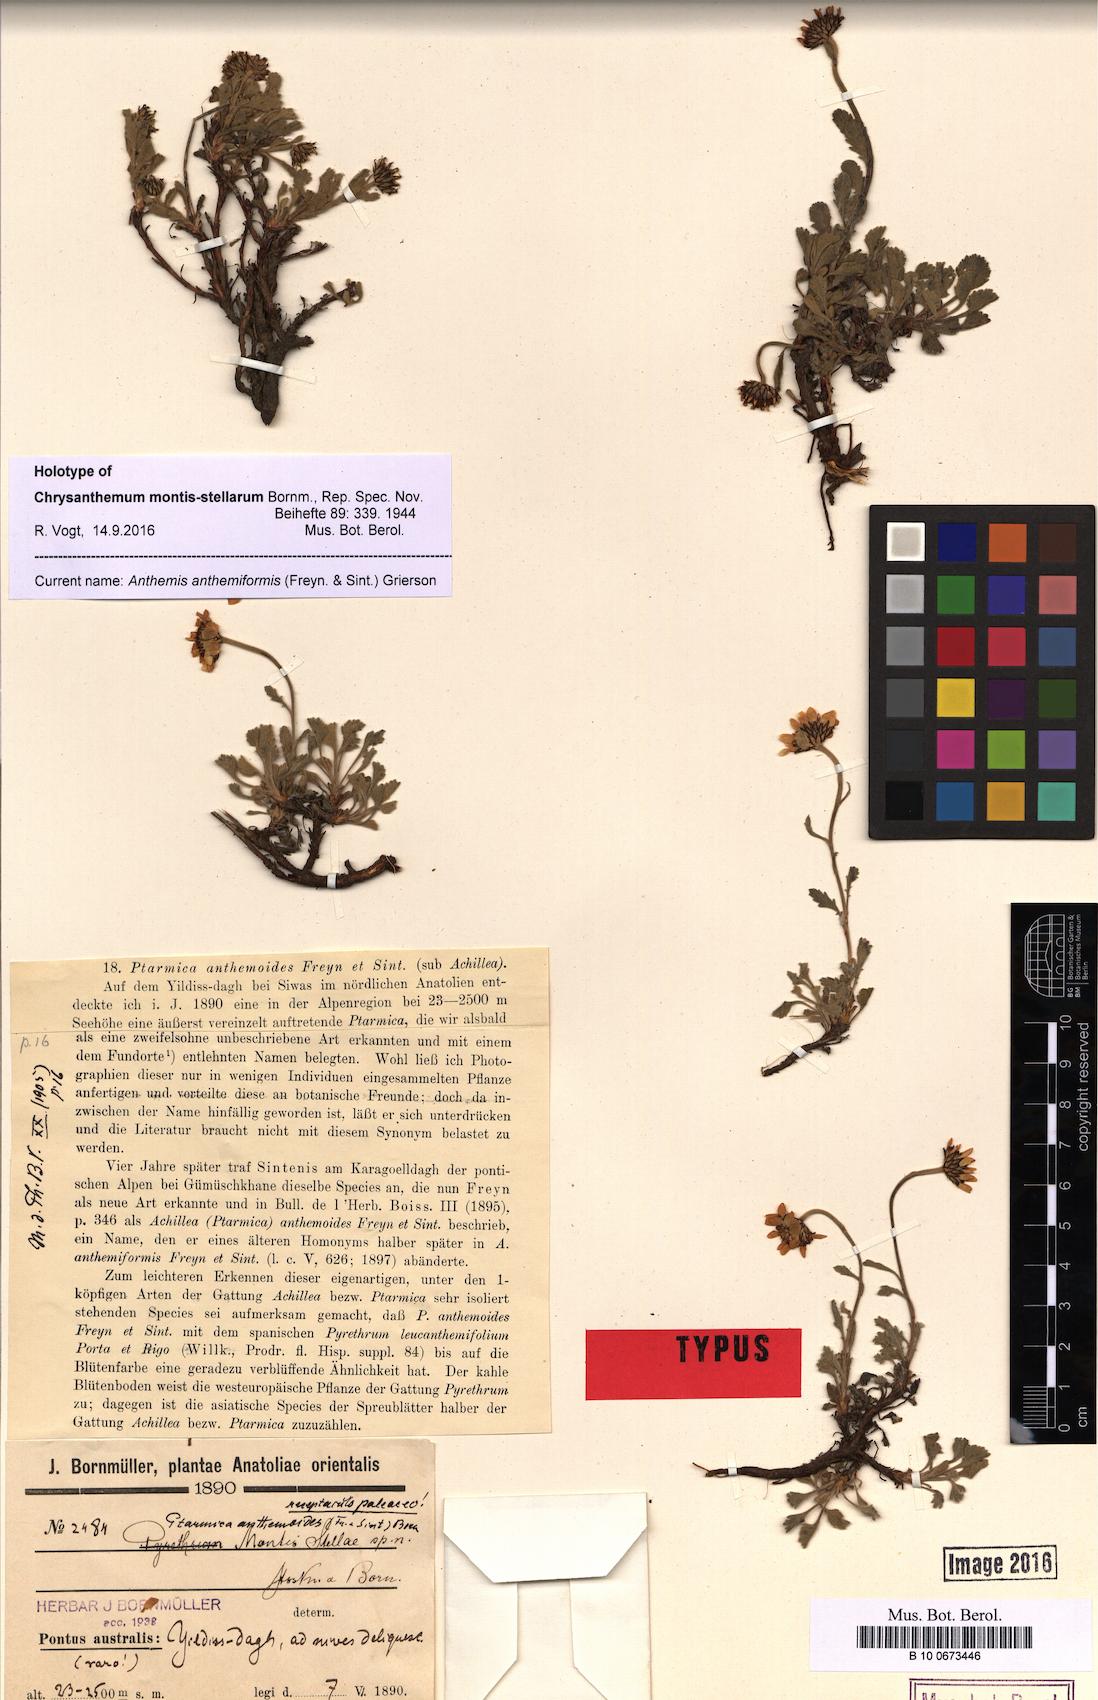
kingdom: Plantae
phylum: Tracheophyta
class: Magnoliopsida
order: Asterales
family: Asteraceae
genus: Anthemis
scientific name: Anthemis anthemiformis
